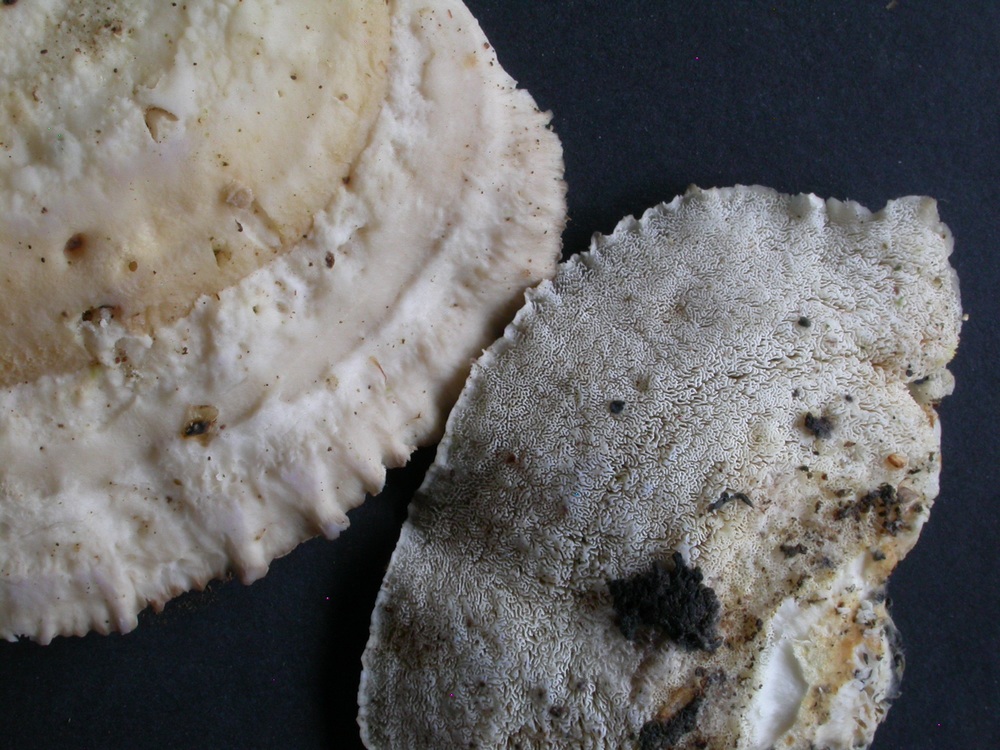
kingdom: Fungi
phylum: Basidiomycota
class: Agaricomycetes
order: Polyporales
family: Incrustoporiaceae
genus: Tyromyces
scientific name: Tyromyces lacteus
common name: mælkehvid kødporesvamp
